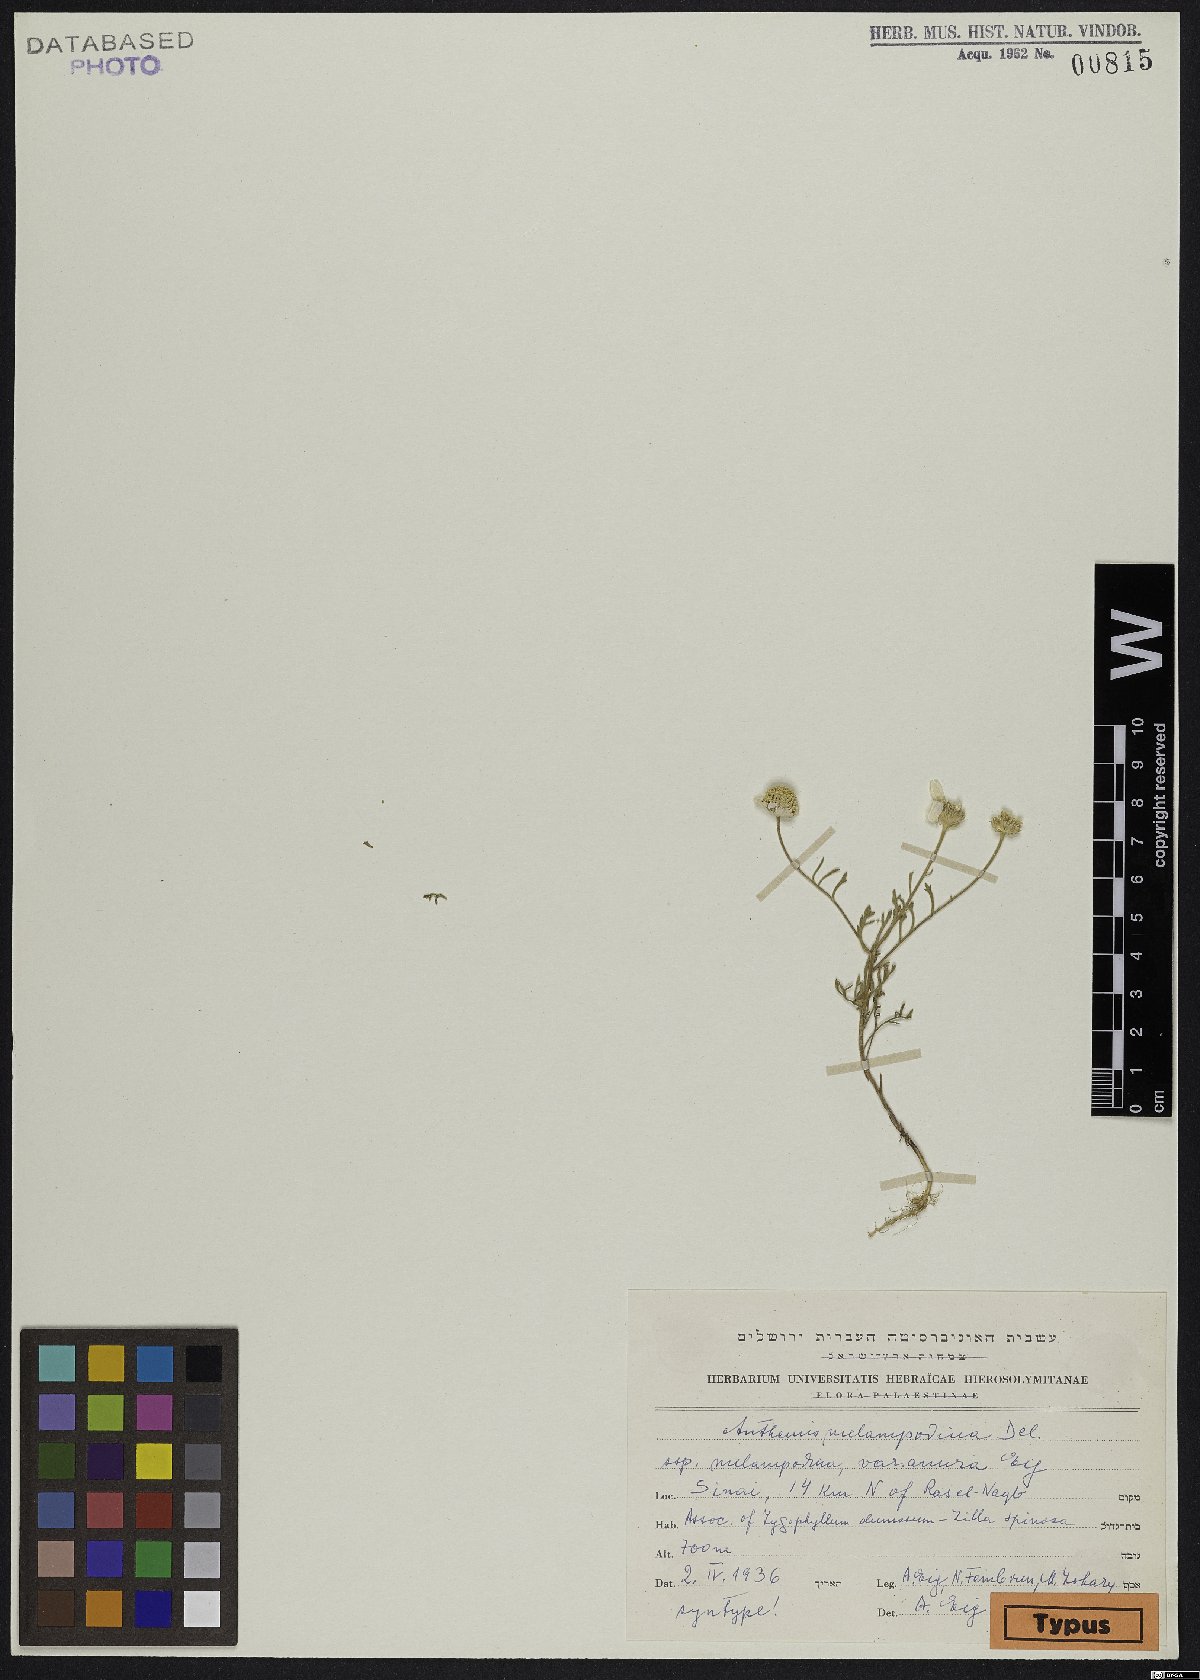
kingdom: Plantae
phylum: Tracheophyta
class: Magnoliopsida
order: Asterales
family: Asteraceae
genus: Anthemis
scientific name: Anthemis melampodina
